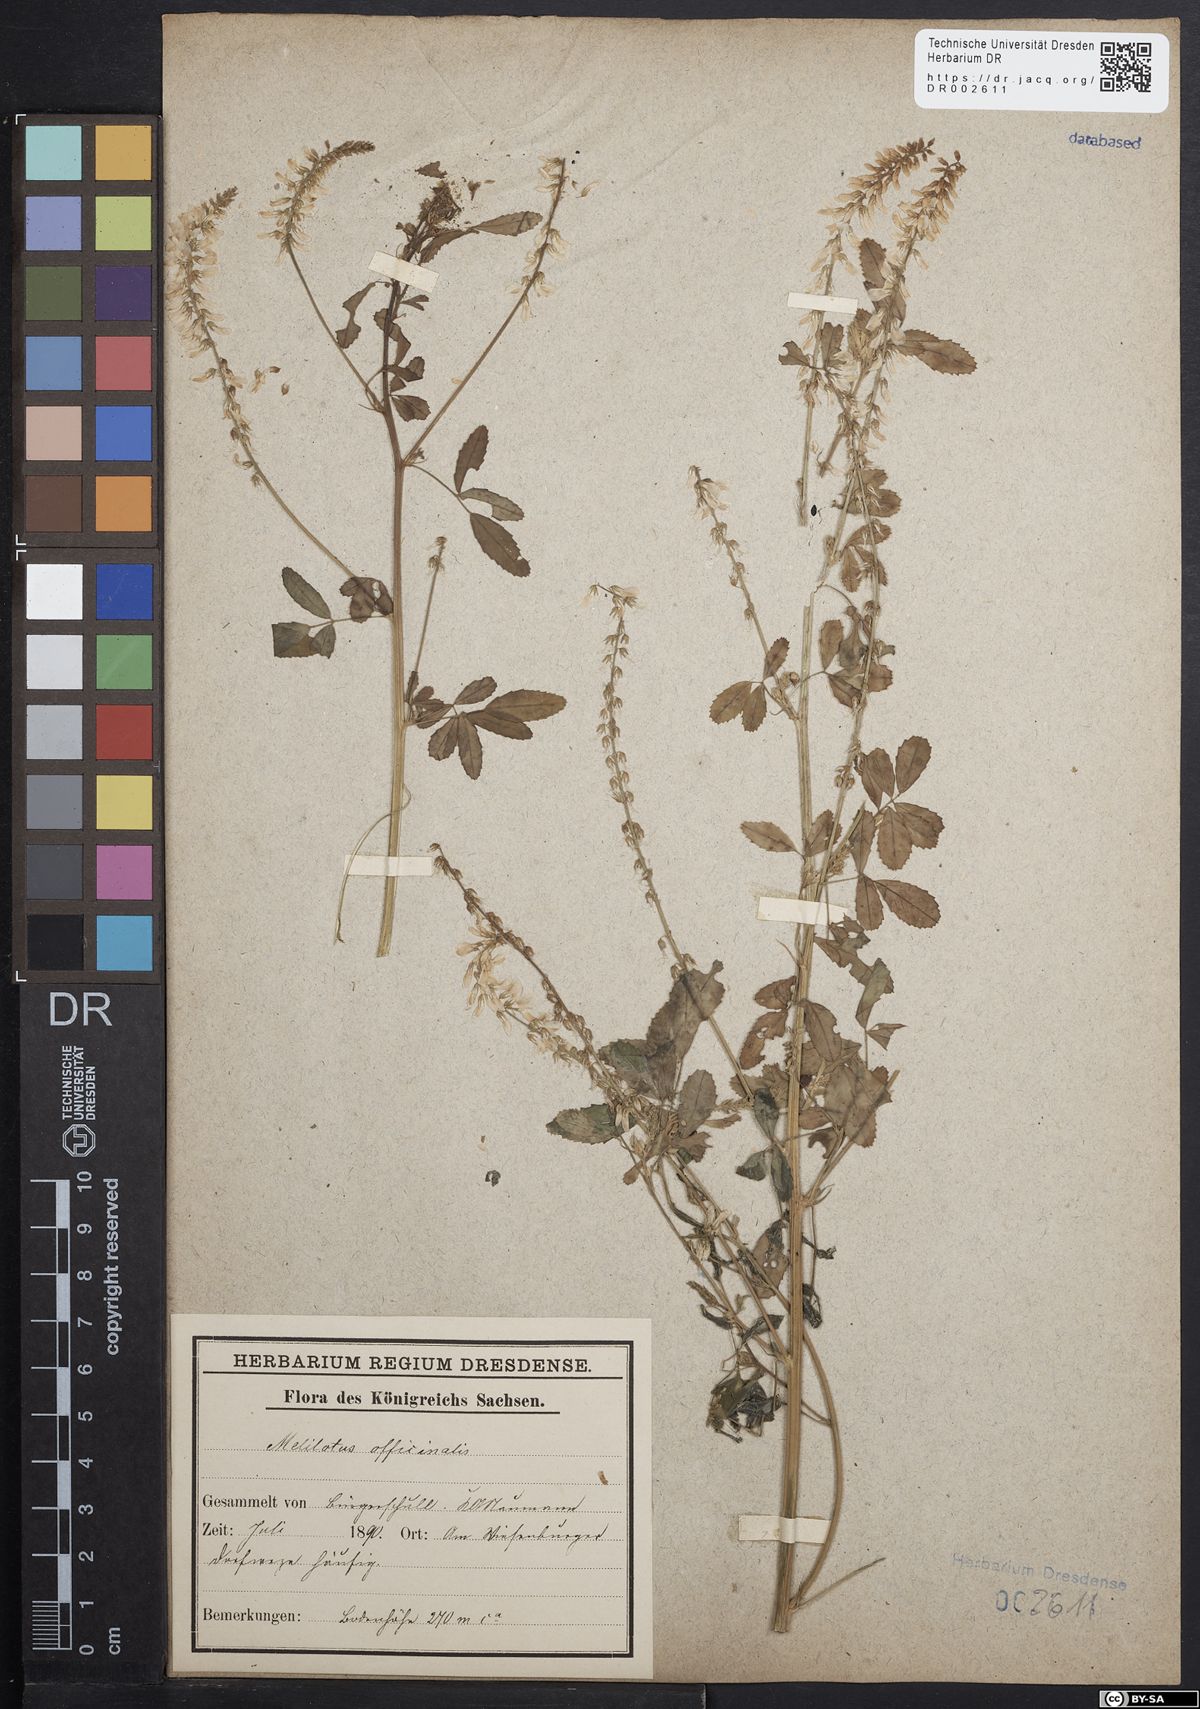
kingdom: Plantae
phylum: Tracheophyta
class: Magnoliopsida
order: Fabales
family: Fabaceae
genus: Melilotus
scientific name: Melilotus officinalis
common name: Sweetclover
